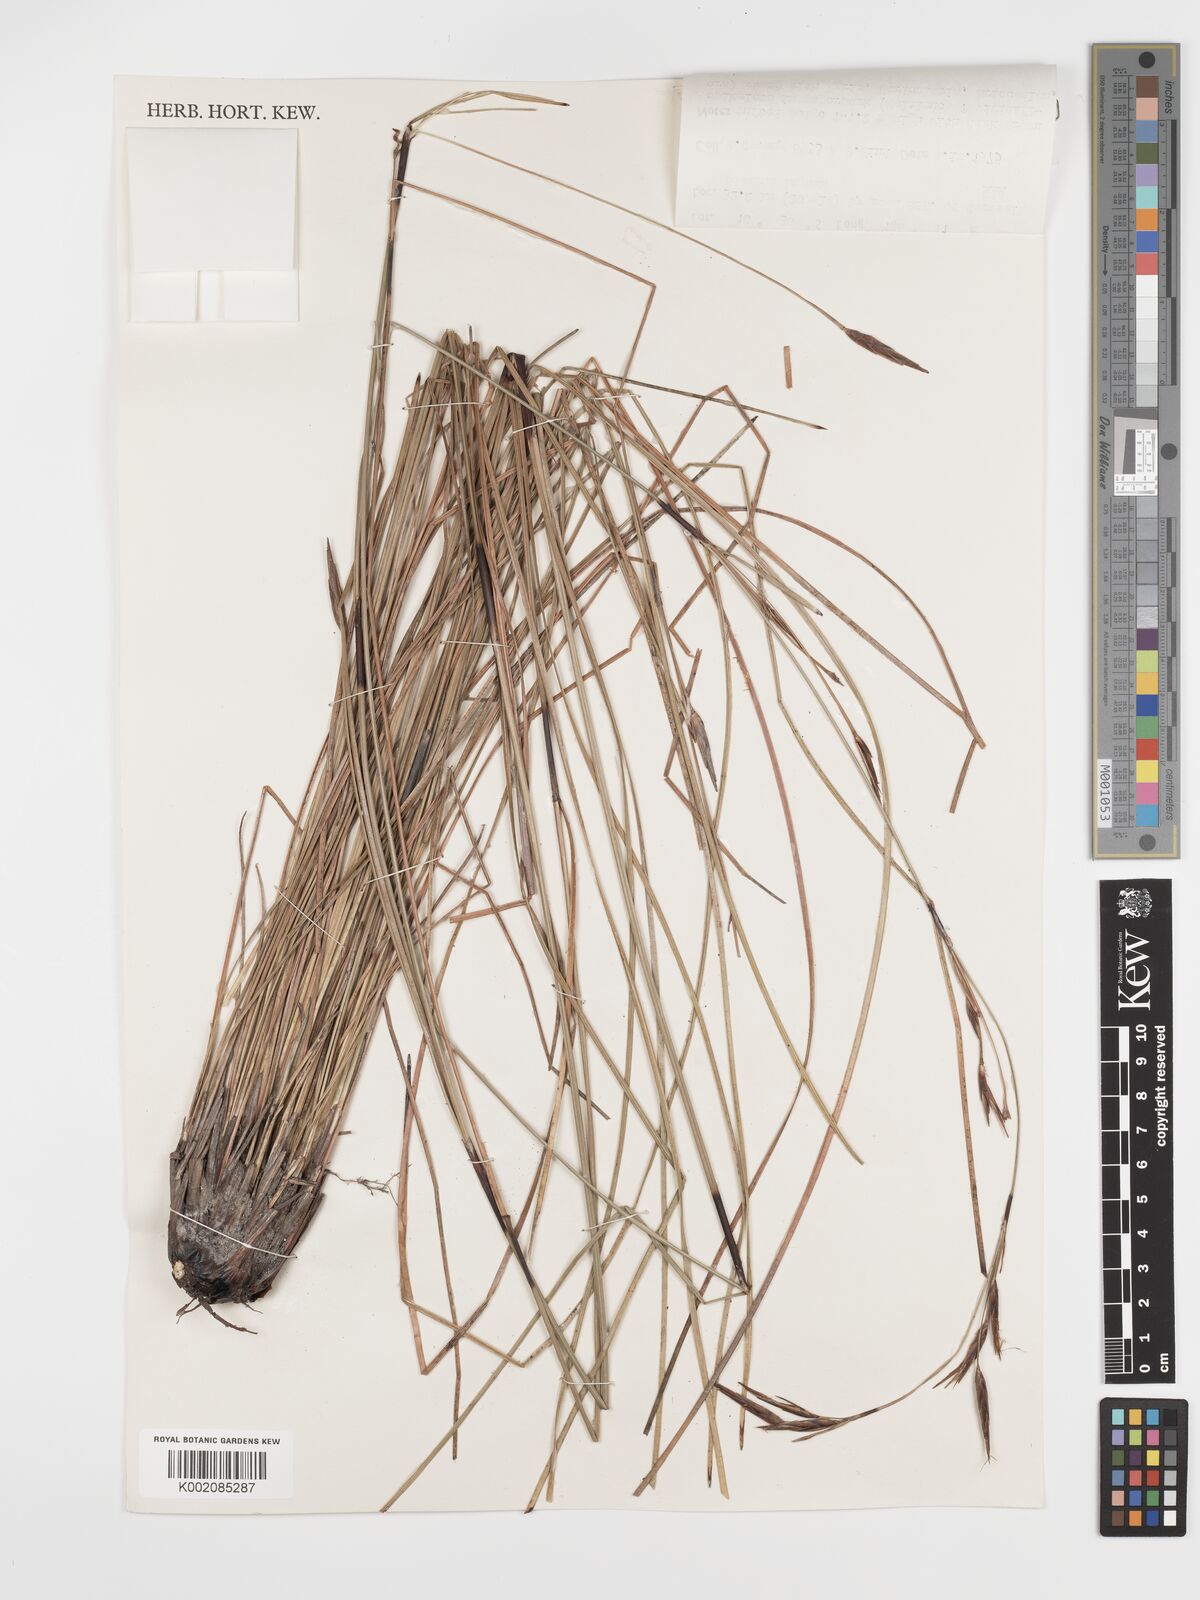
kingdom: Plantae
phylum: Tracheophyta
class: Liliopsida
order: Poales
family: Cyperaceae
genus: Schoenus
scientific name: Schoenus calostachyus
